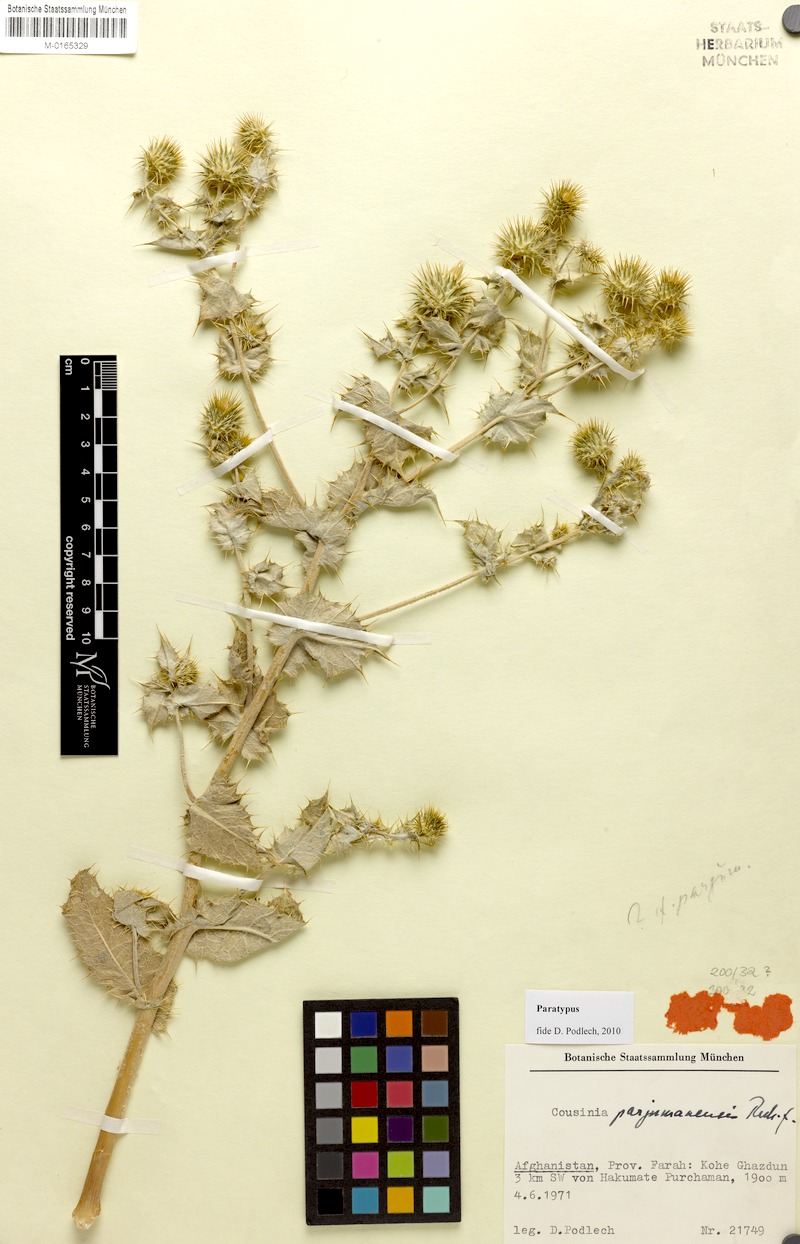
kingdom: Plantae
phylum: Tracheophyta
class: Magnoliopsida
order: Asterales
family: Asteraceae
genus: Cousinia
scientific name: Cousinia parjumanensis
